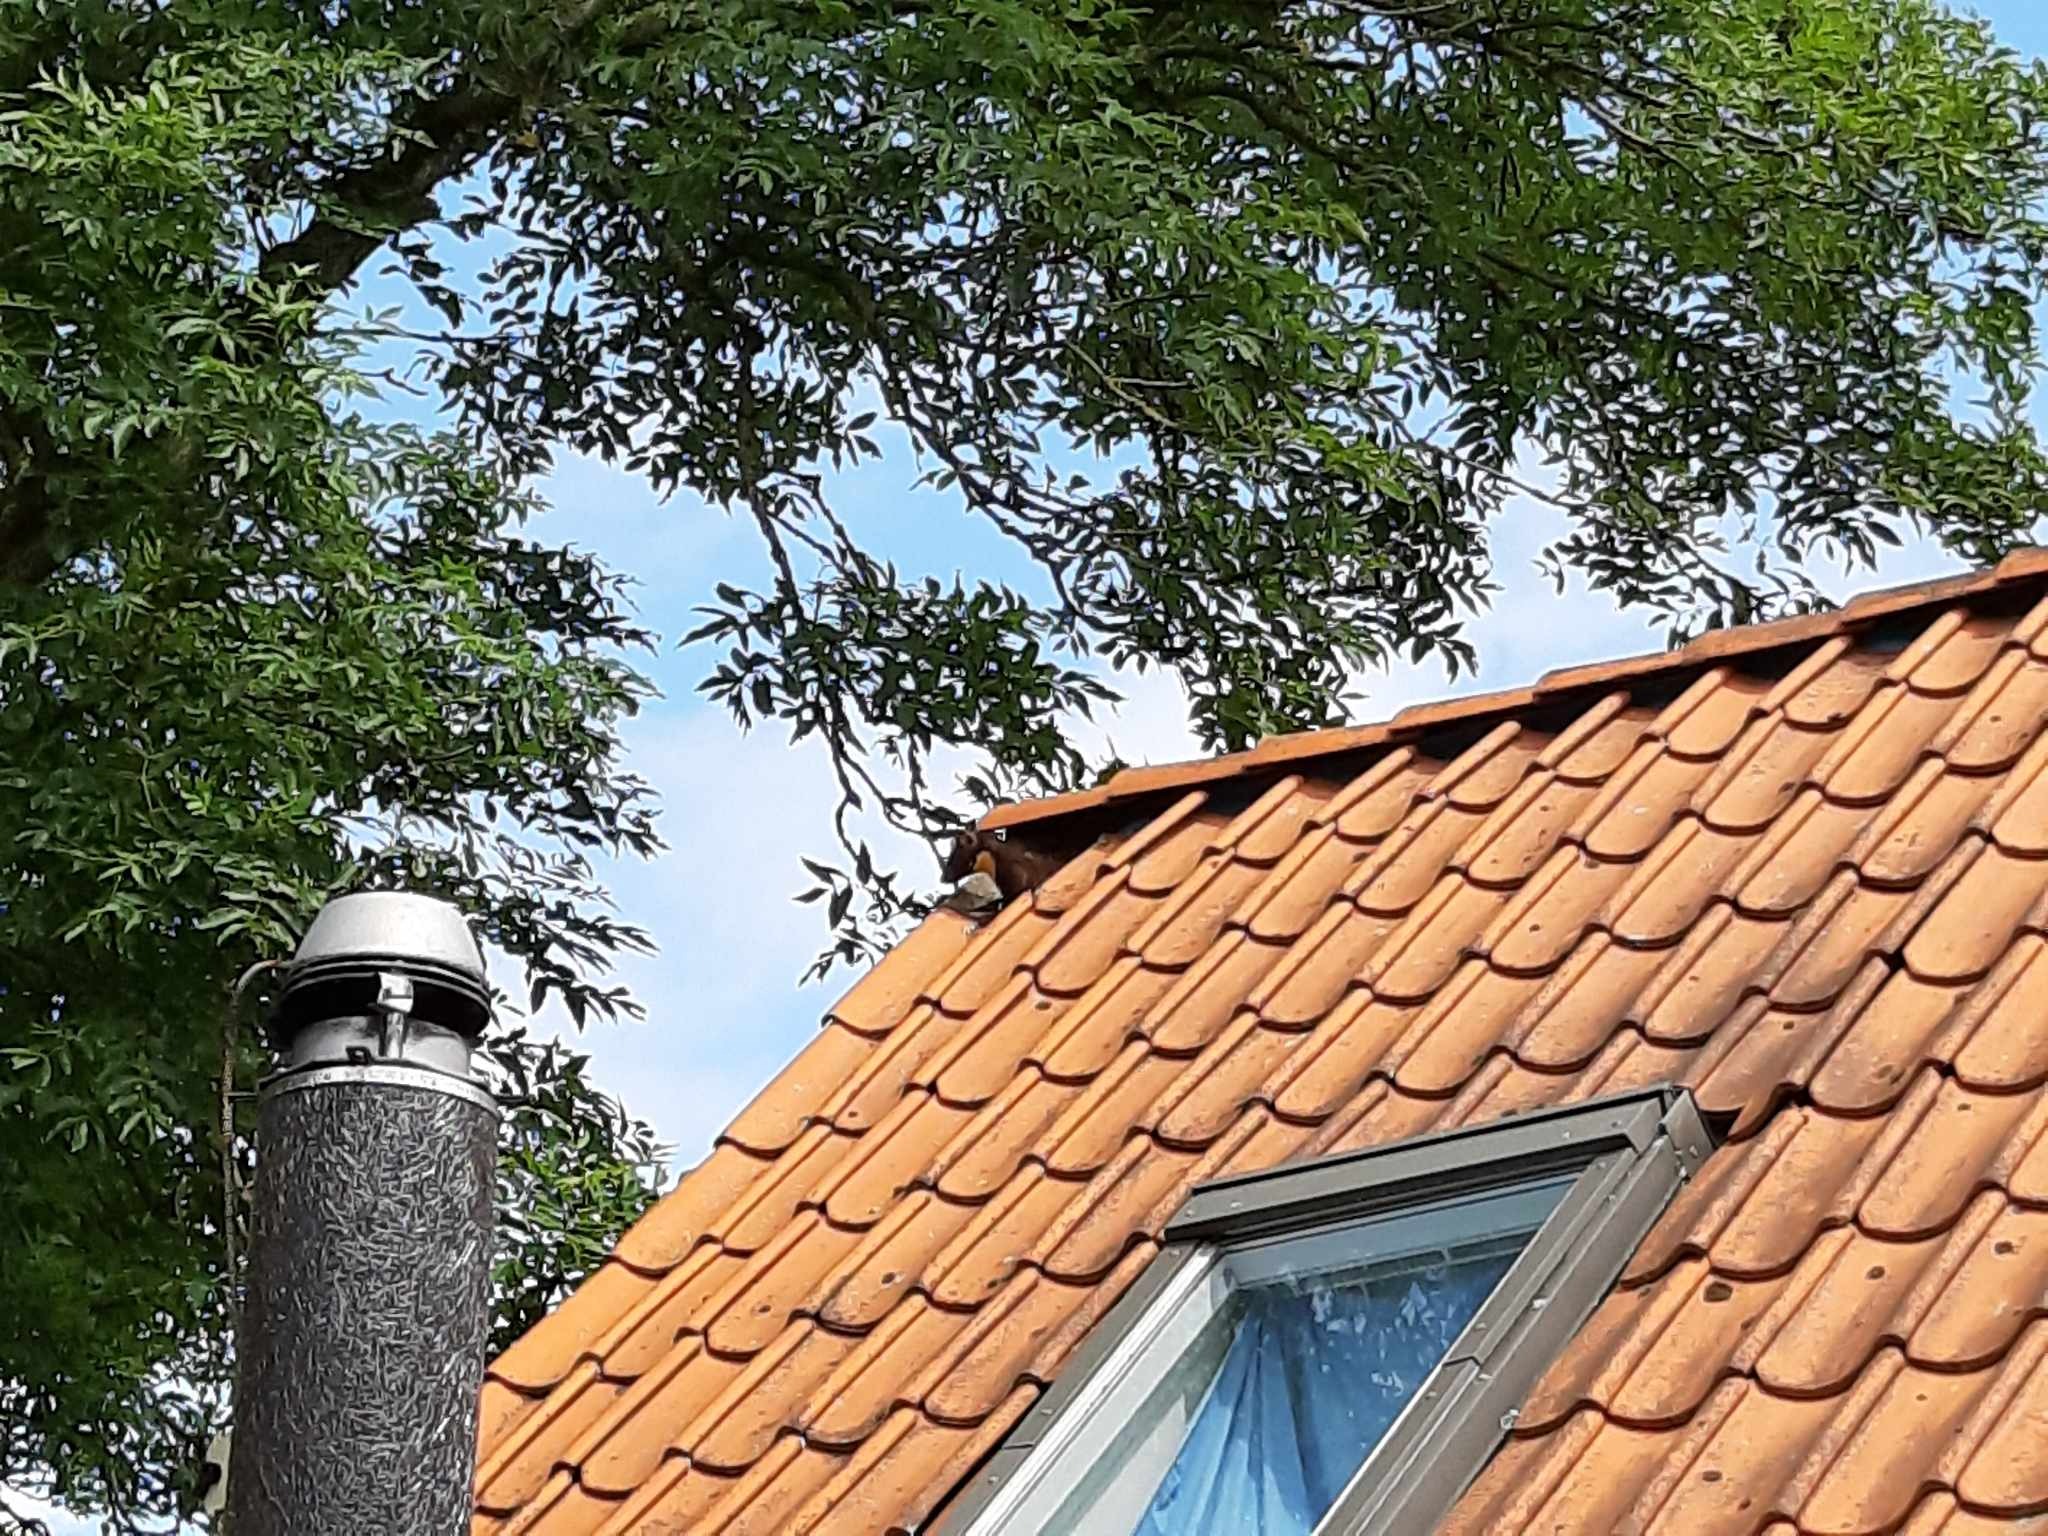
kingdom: Animalia
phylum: Chordata
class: Mammalia
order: Carnivora
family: Mustelidae
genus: Martes
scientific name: Martes martes
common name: Skovmår
